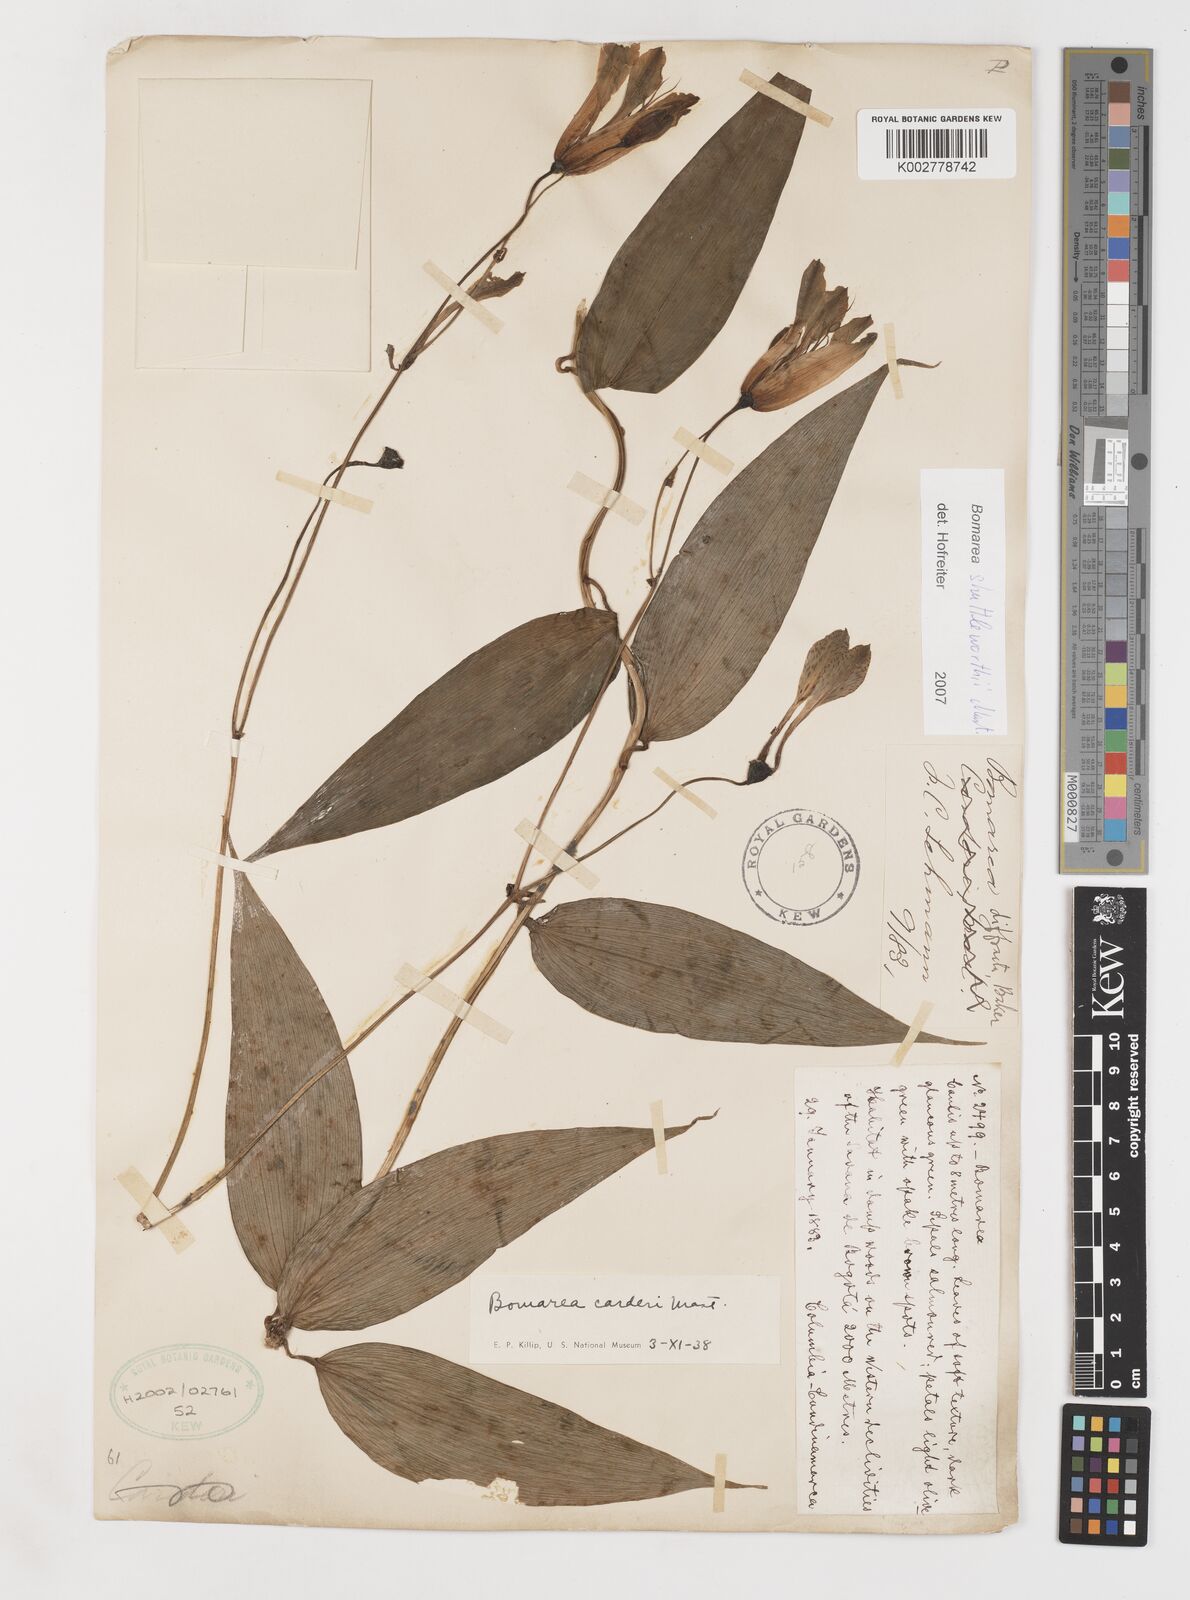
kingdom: Plantae
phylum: Tracheophyta
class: Liliopsida
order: Liliales
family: Alstroemeriaceae
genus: Bomarea
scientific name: Bomarea carderi
